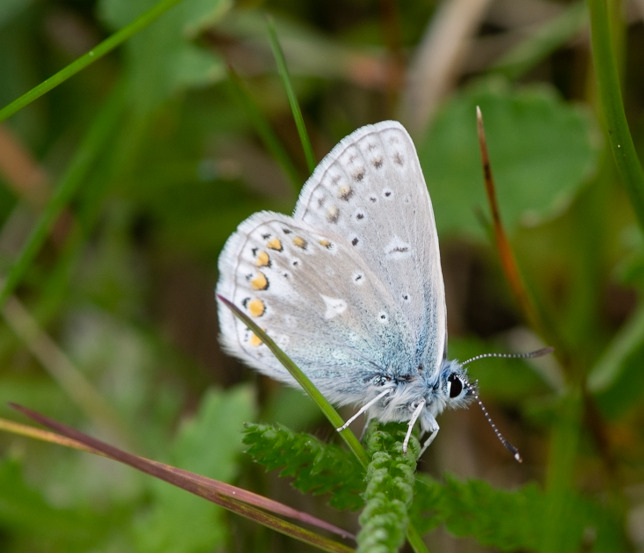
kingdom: Animalia
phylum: Arthropoda
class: Insecta
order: Lepidoptera
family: Lycaenidae
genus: Polyommatus
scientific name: Polyommatus icarus
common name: Almindelig blåfugl
